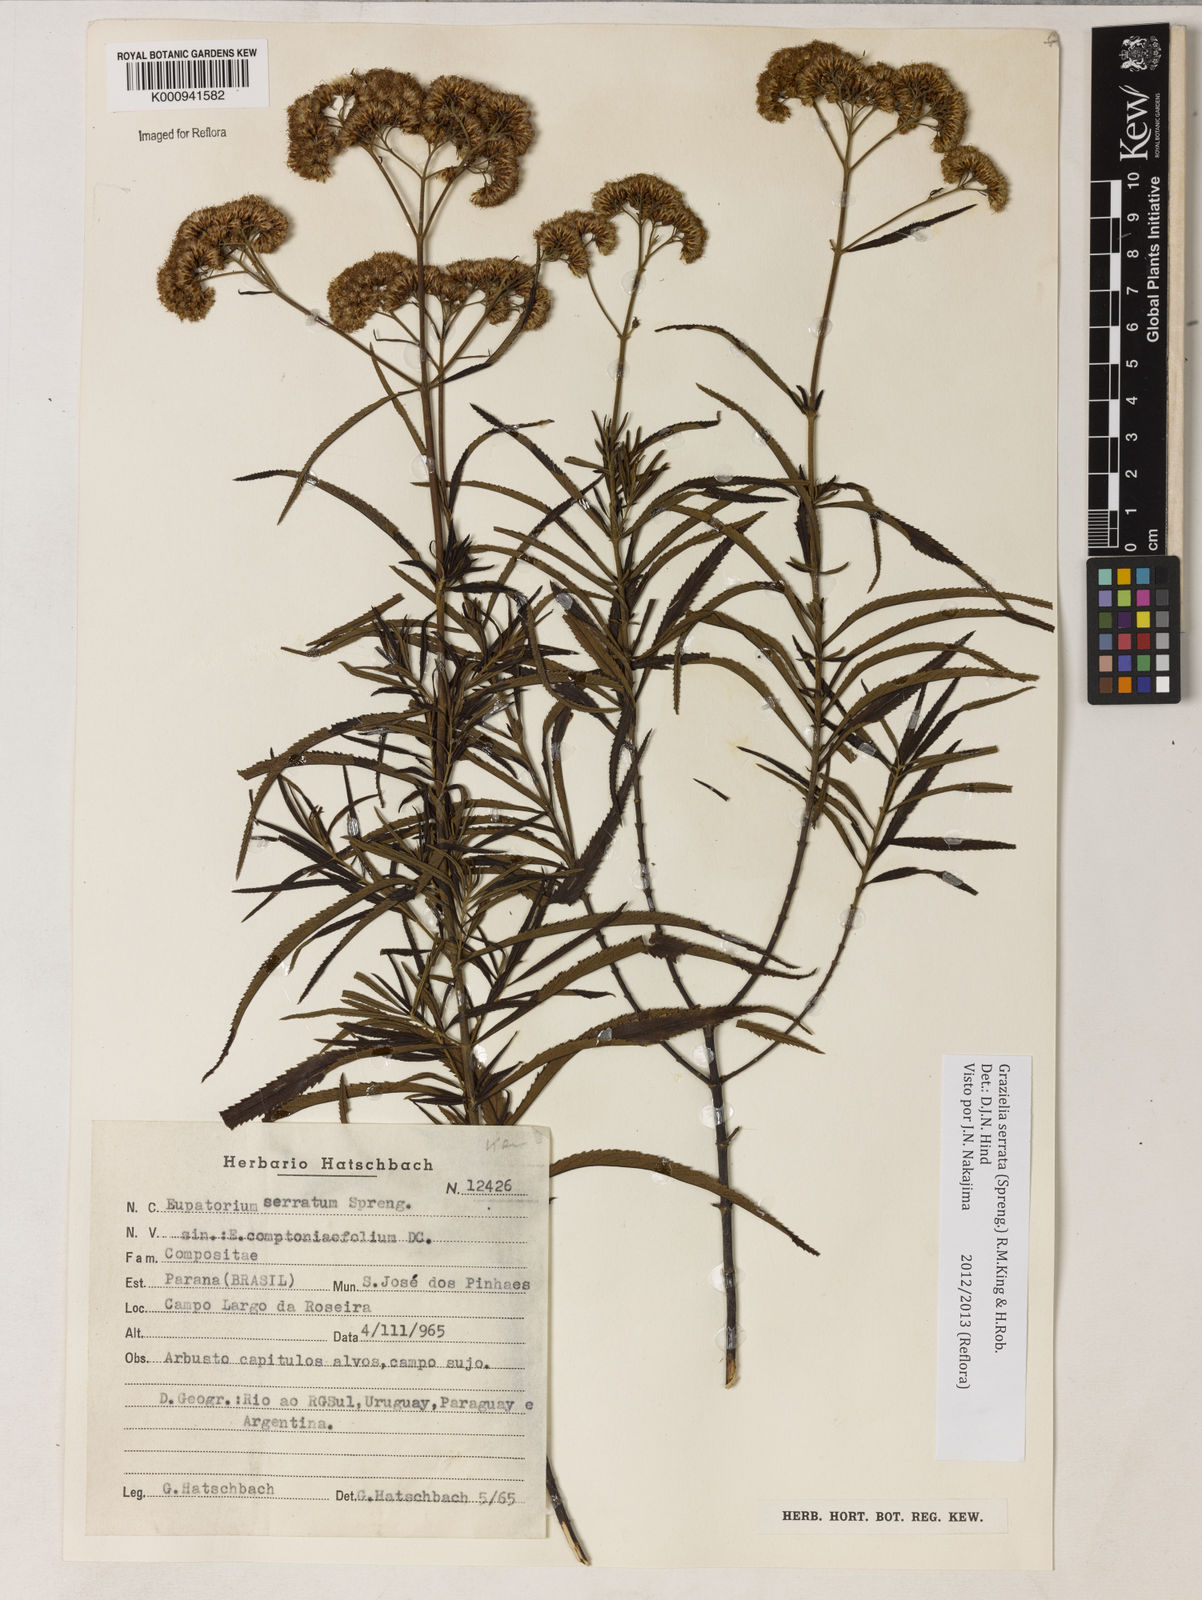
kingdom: Plantae
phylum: Tracheophyta
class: Magnoliopsida
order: Asterales
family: Asteraceae
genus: Grazielia
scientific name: Grazielia serrata
